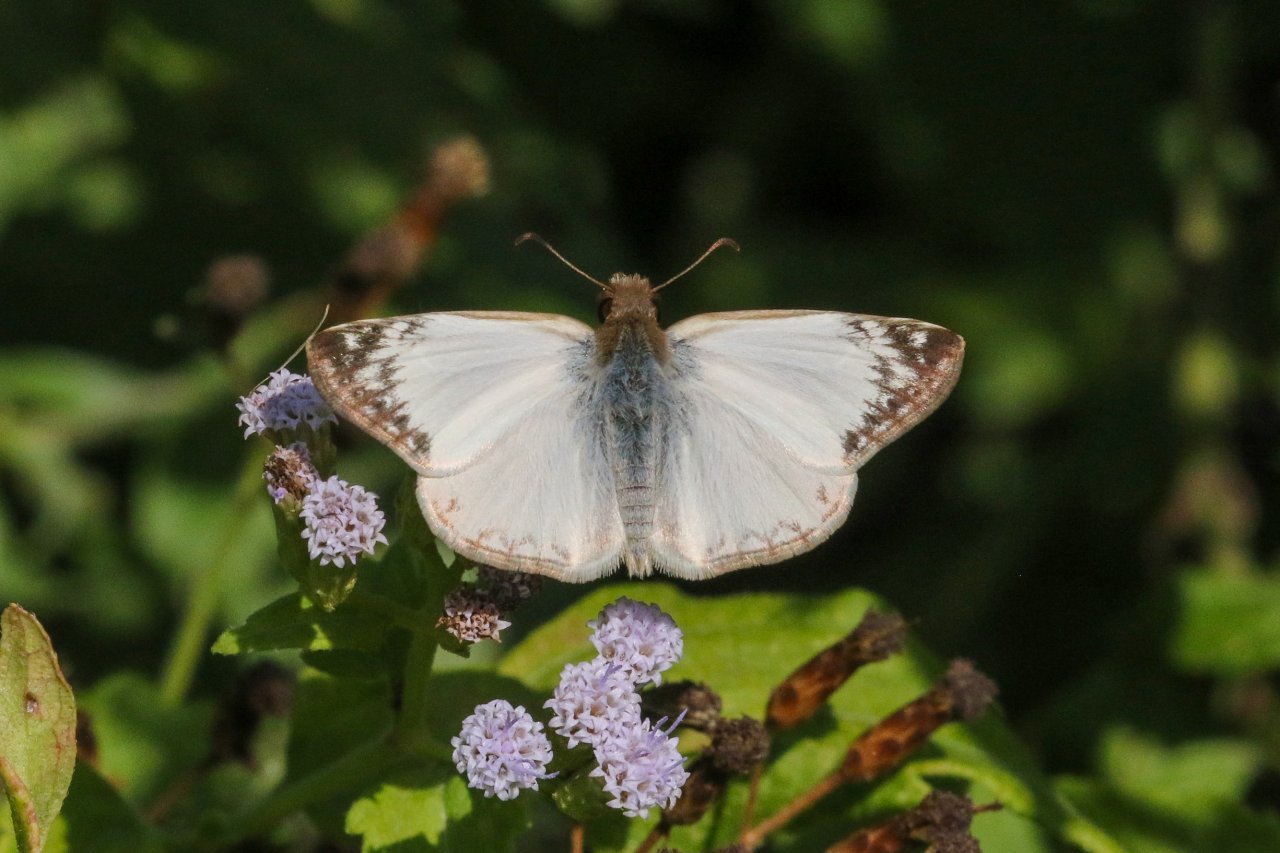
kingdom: Animalia
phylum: Arthropoda
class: Insecta
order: Lepidoptera
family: Hesperiidae
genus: Heliopetes
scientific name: Heliopetes laviana
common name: Laviana White-Skipper
